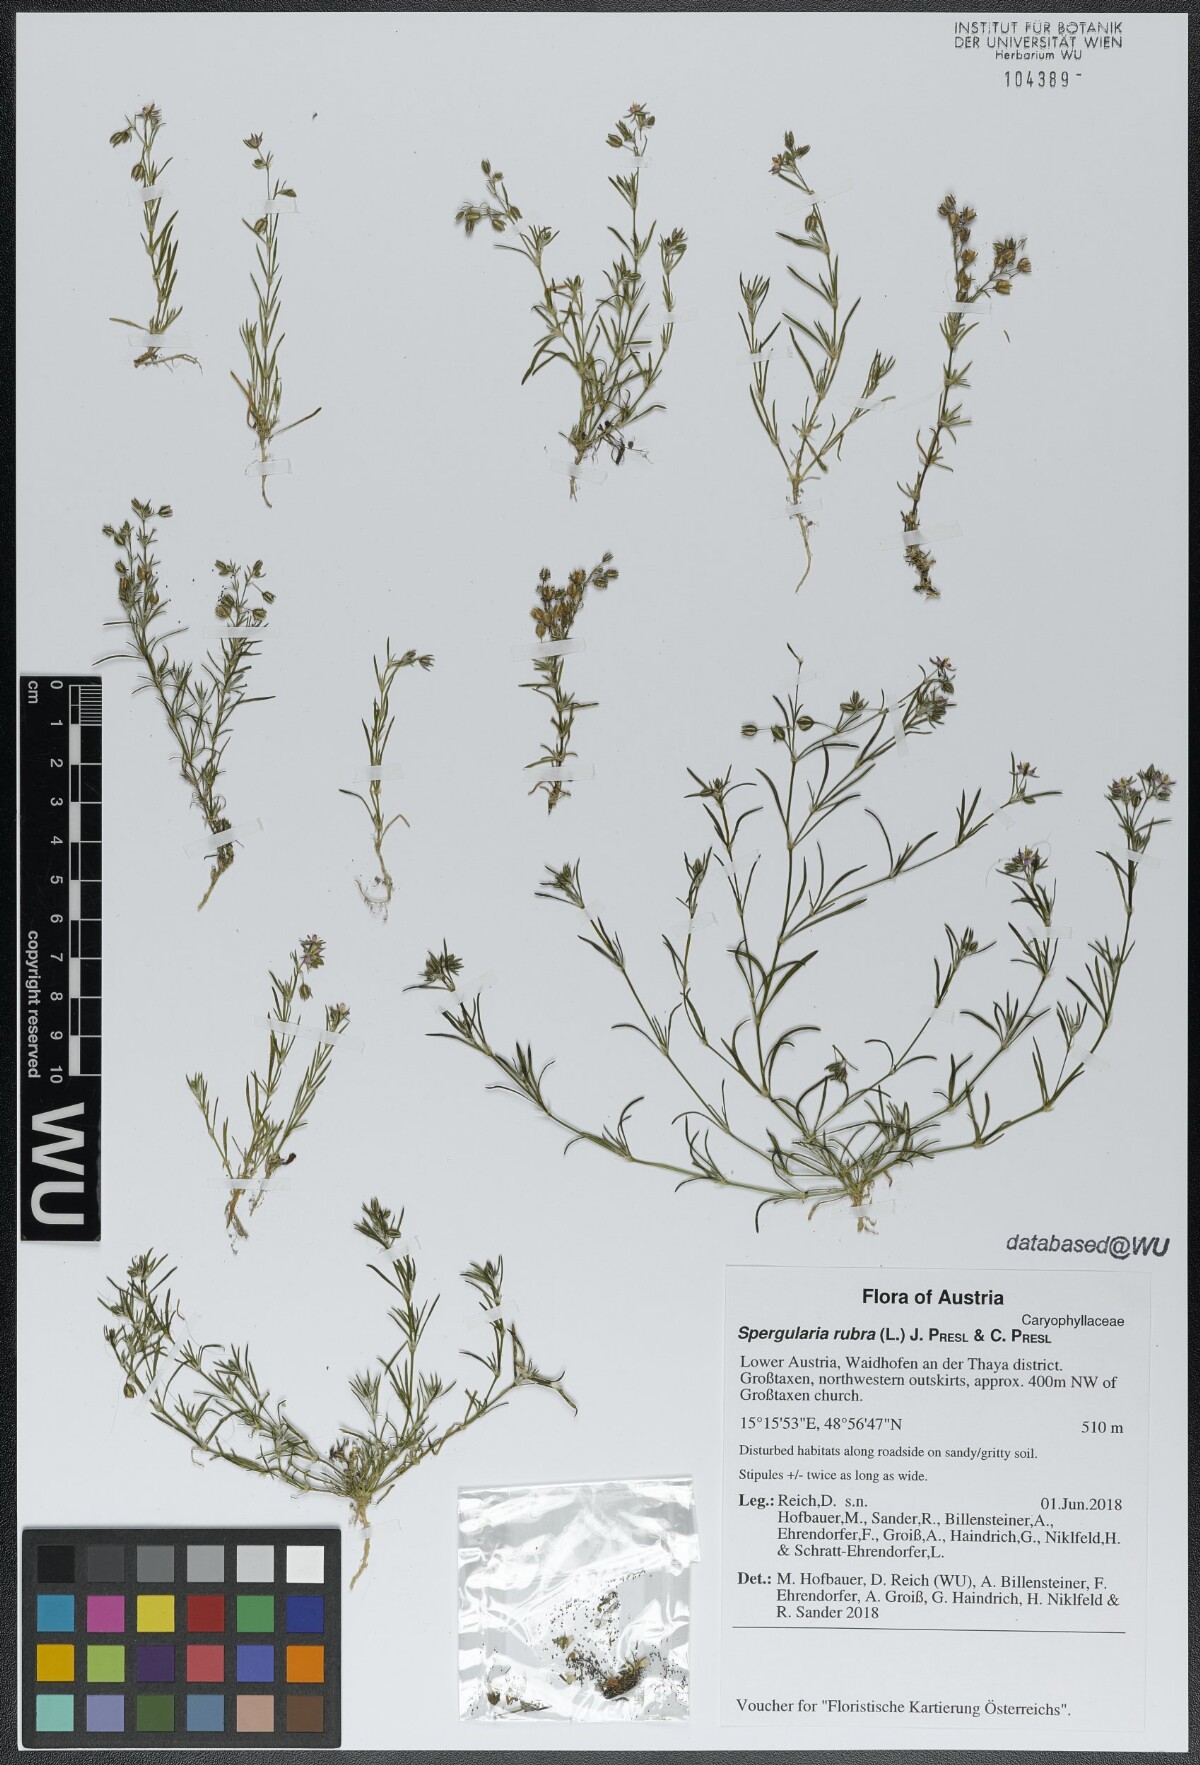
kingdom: Plantae
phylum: Tracheophyta
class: Magnoliopsida
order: Caryophyllales
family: Caryophyllaceae
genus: Spergularia
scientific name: Spergularia rubra
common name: Red sand-spurrey
